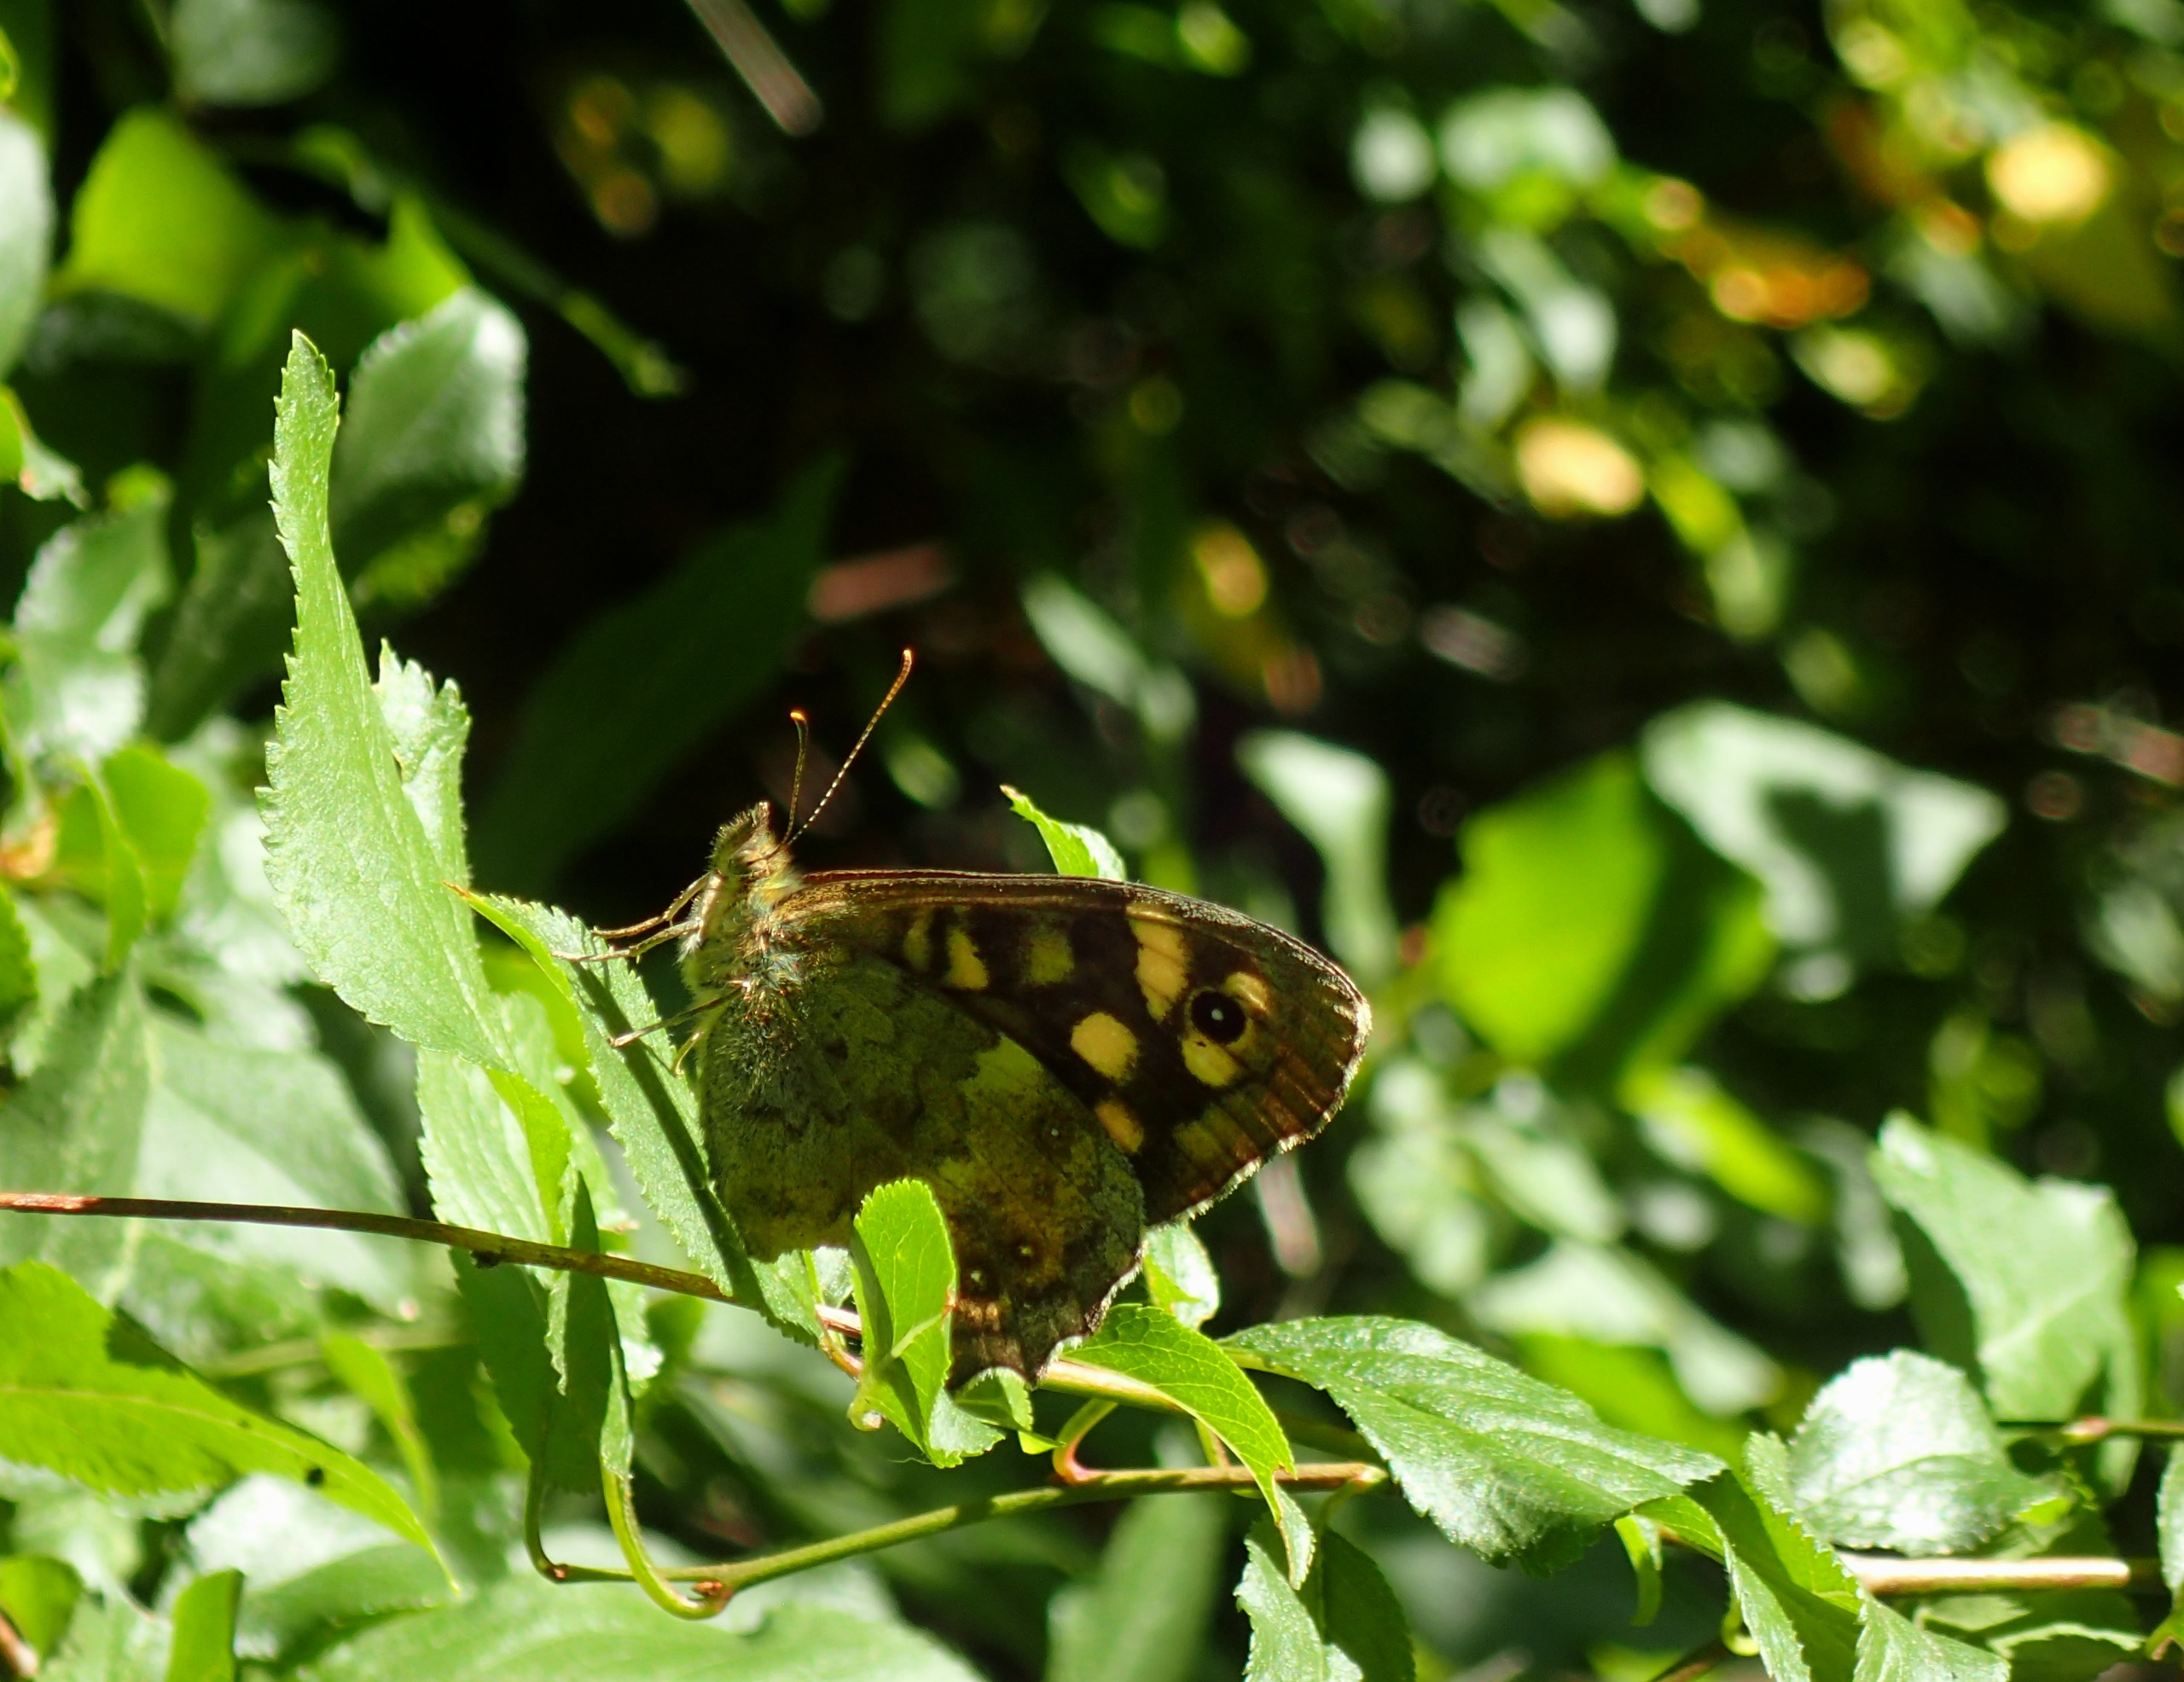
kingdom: Animalia
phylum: Arthropoda
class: Insecta
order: Lepidoptera
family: Nymphalidae
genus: Pararge
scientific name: Pararge aegeria
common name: Skovrandøje
